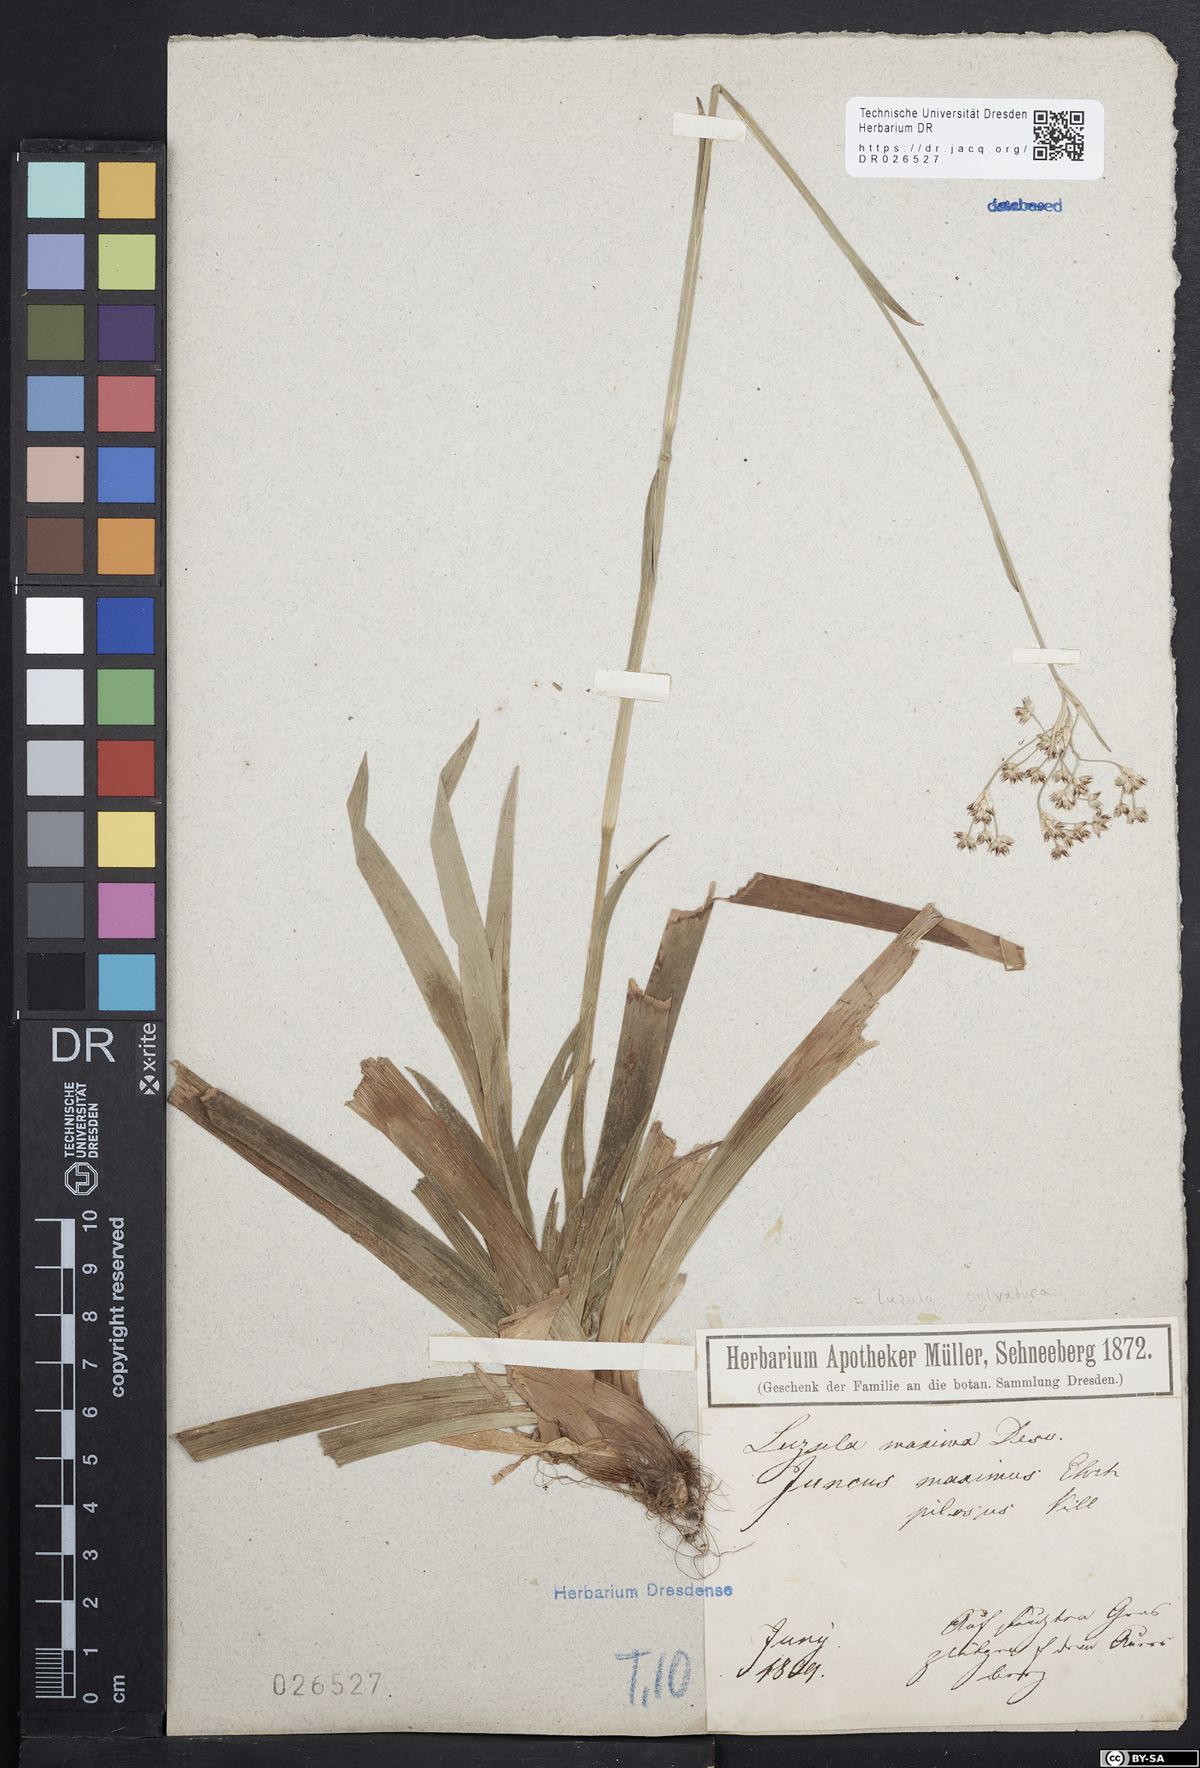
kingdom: Plantae
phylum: Tracheophyta
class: Liliopsida
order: Poales
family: Juncaceae
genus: Luzula
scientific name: Luzula sylvatica
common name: Great wood-rush
